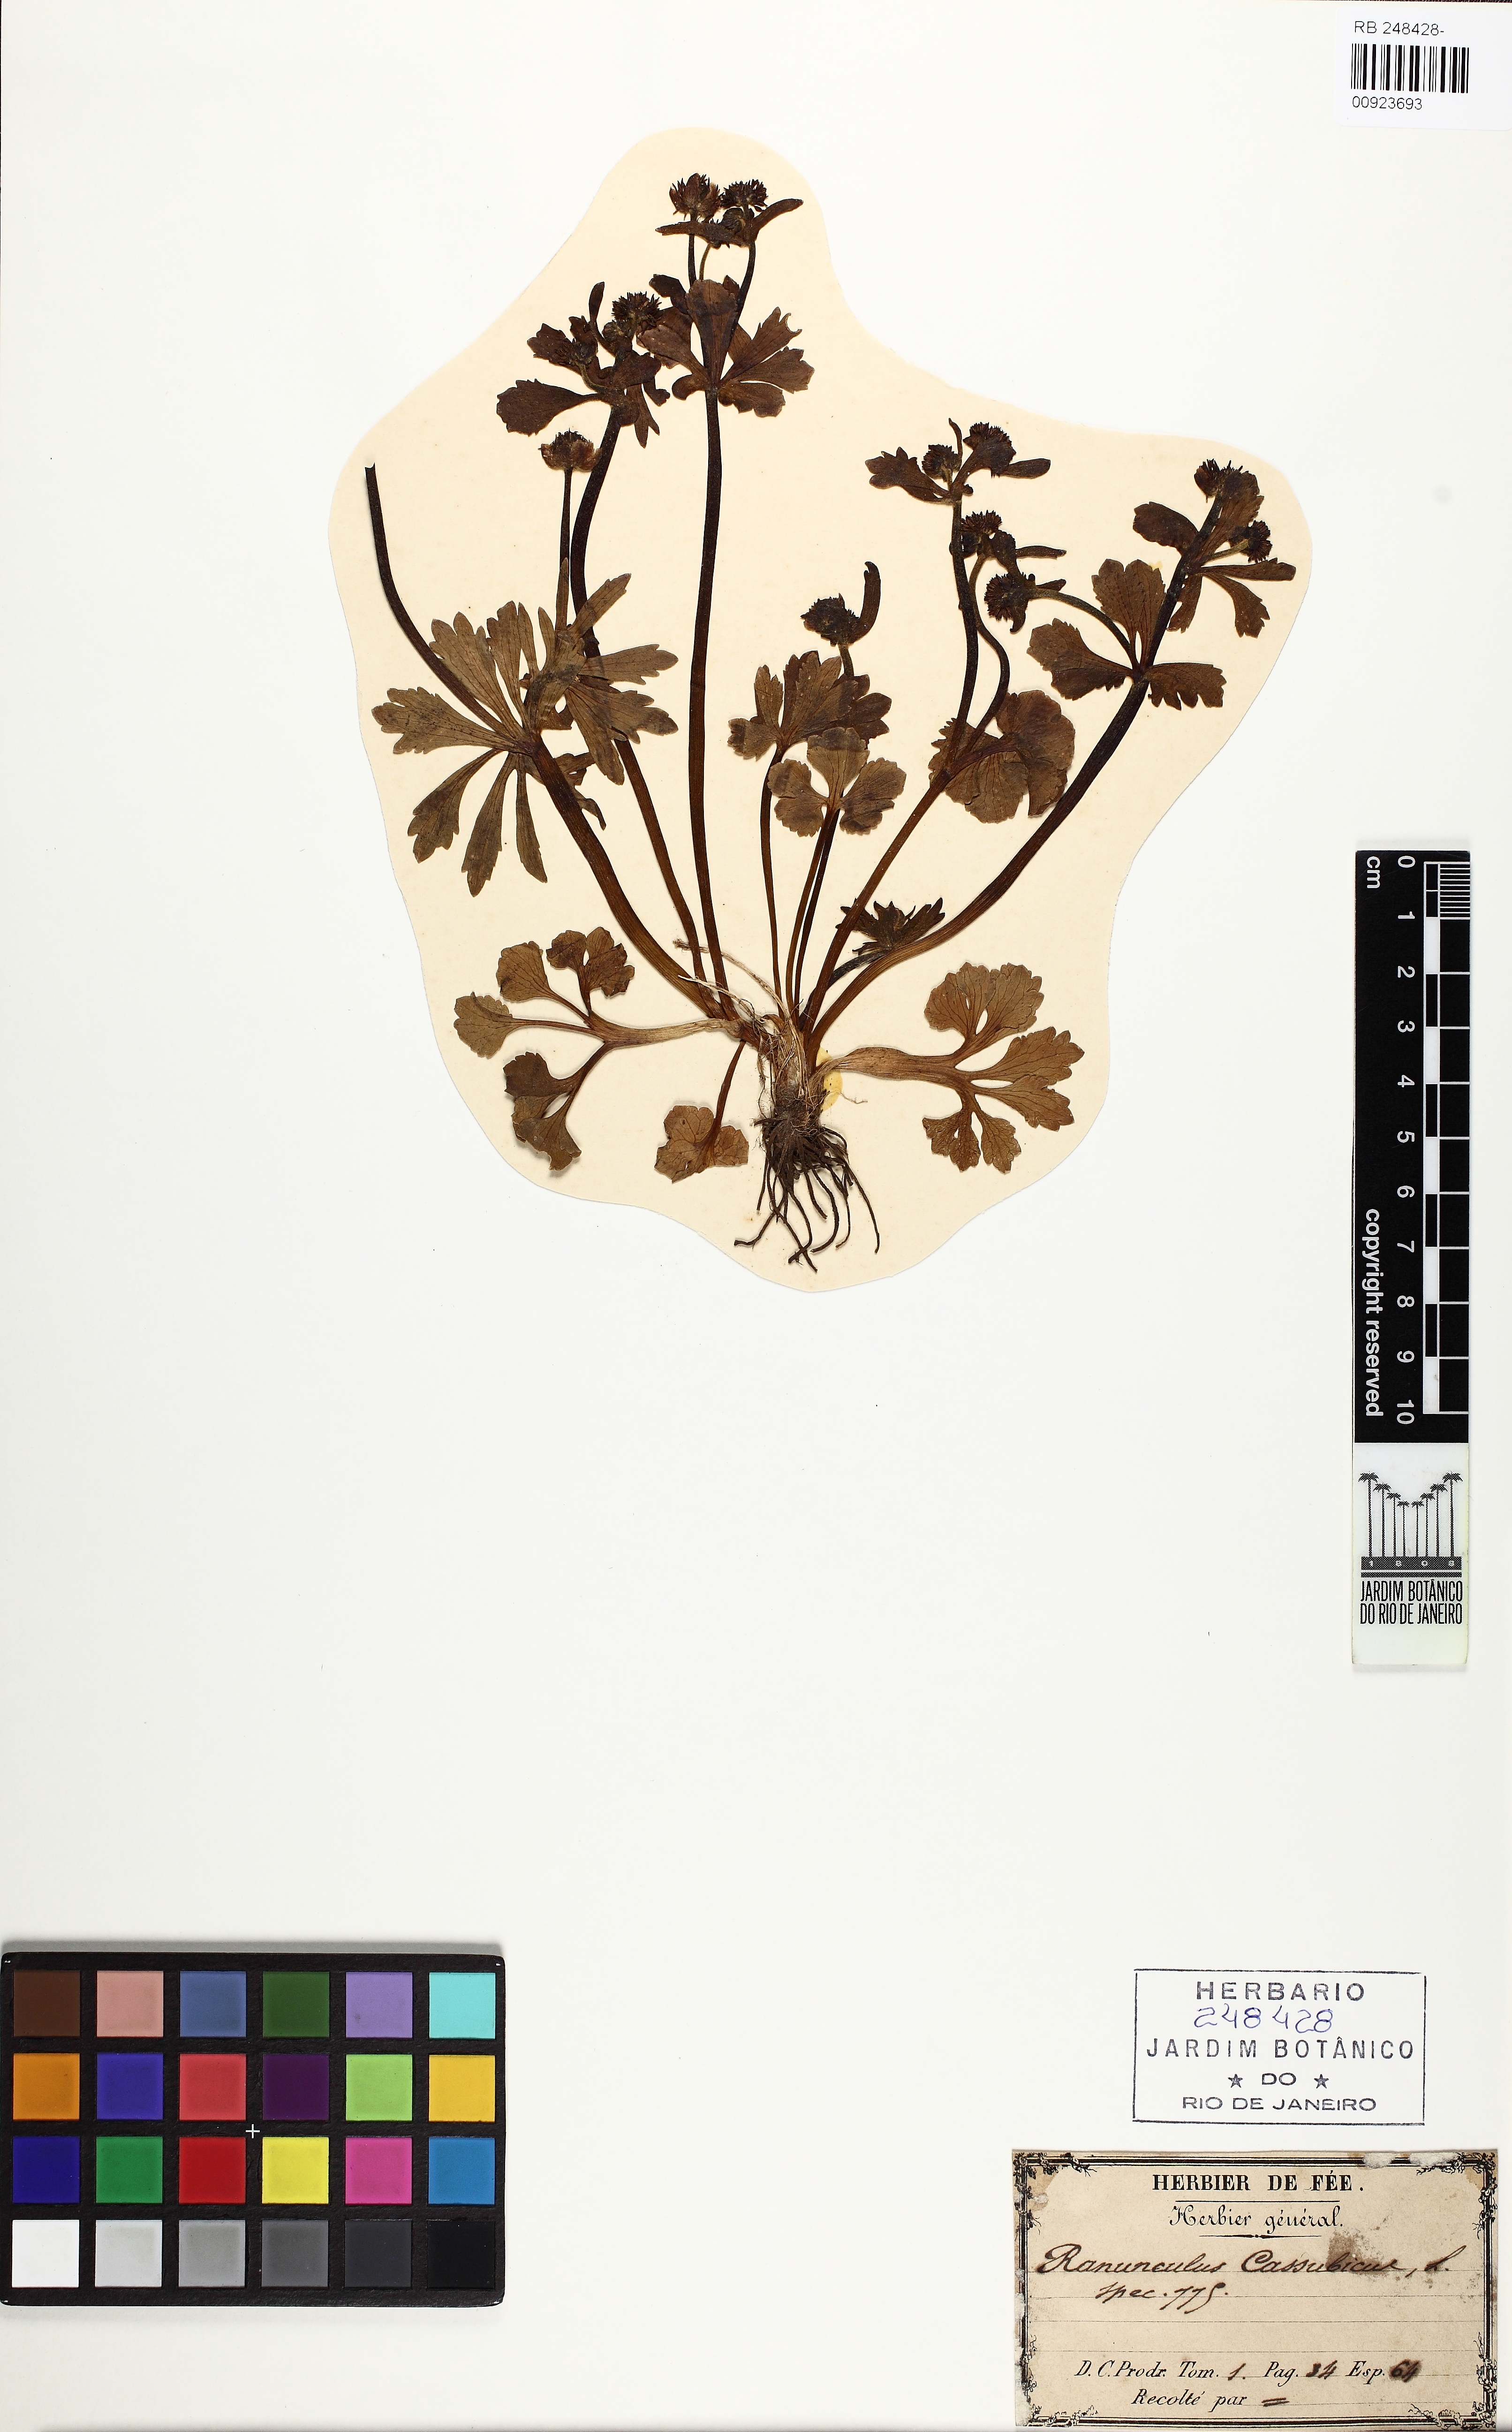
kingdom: Plantae
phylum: Tracheophyta
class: Magnoliopsida
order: Ranunculales
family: Ranunculaceae
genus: Ranunculus
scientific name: Ranunculus cassubicus
